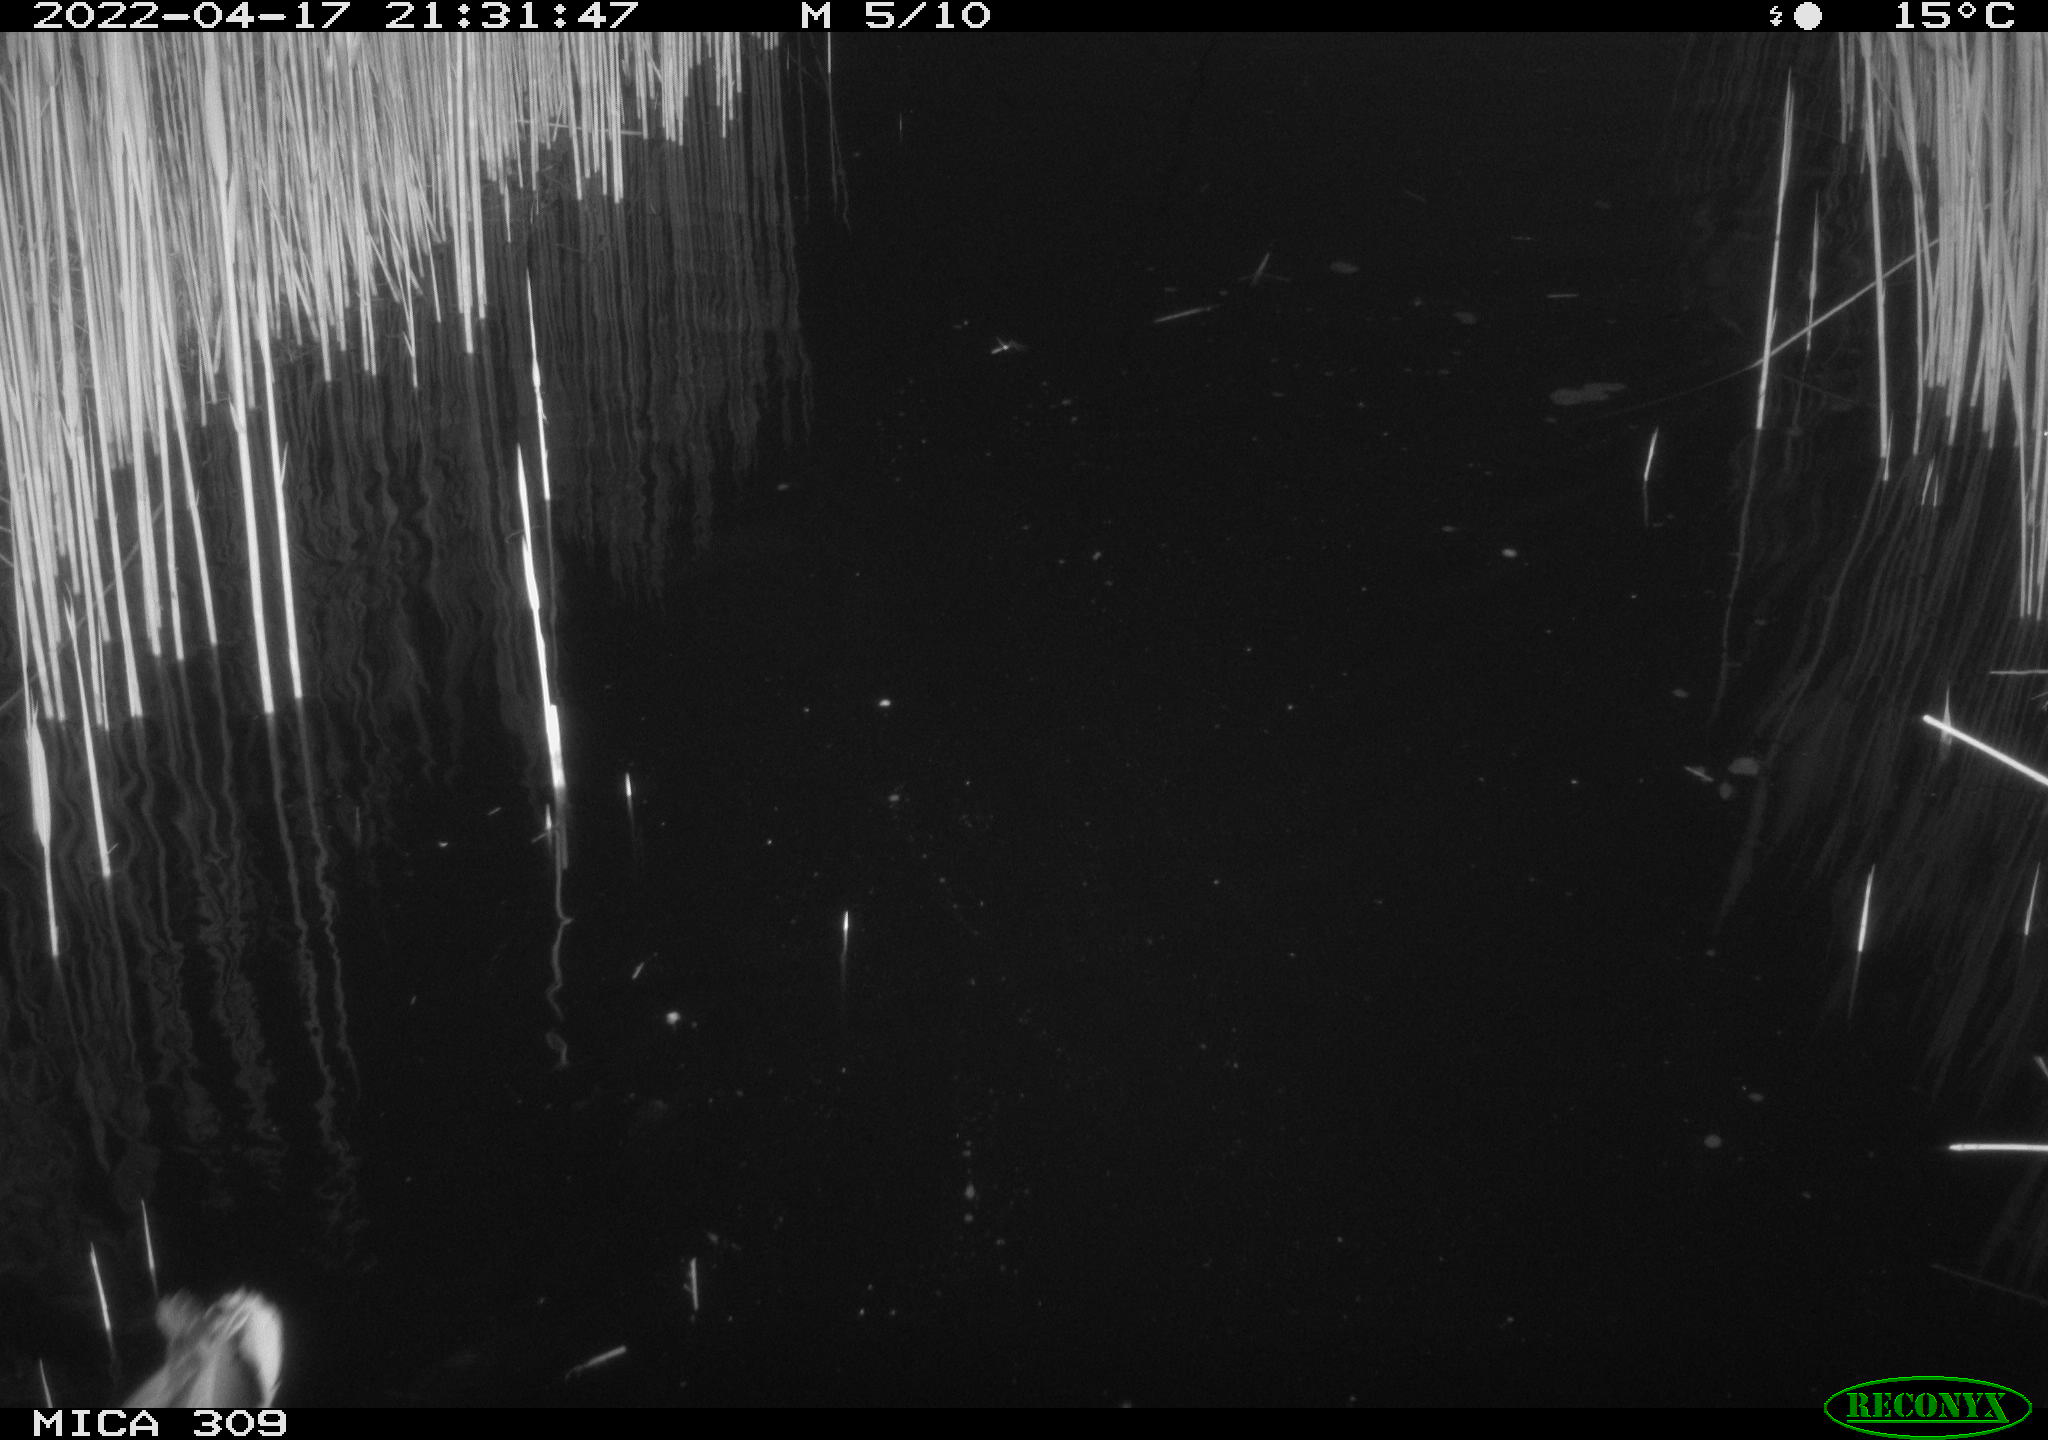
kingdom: Animalia
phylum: Chordata
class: Aves
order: Gruiformes
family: Rallidae
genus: Gallinula
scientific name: Gallinula chloropus
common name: Common moorhen
